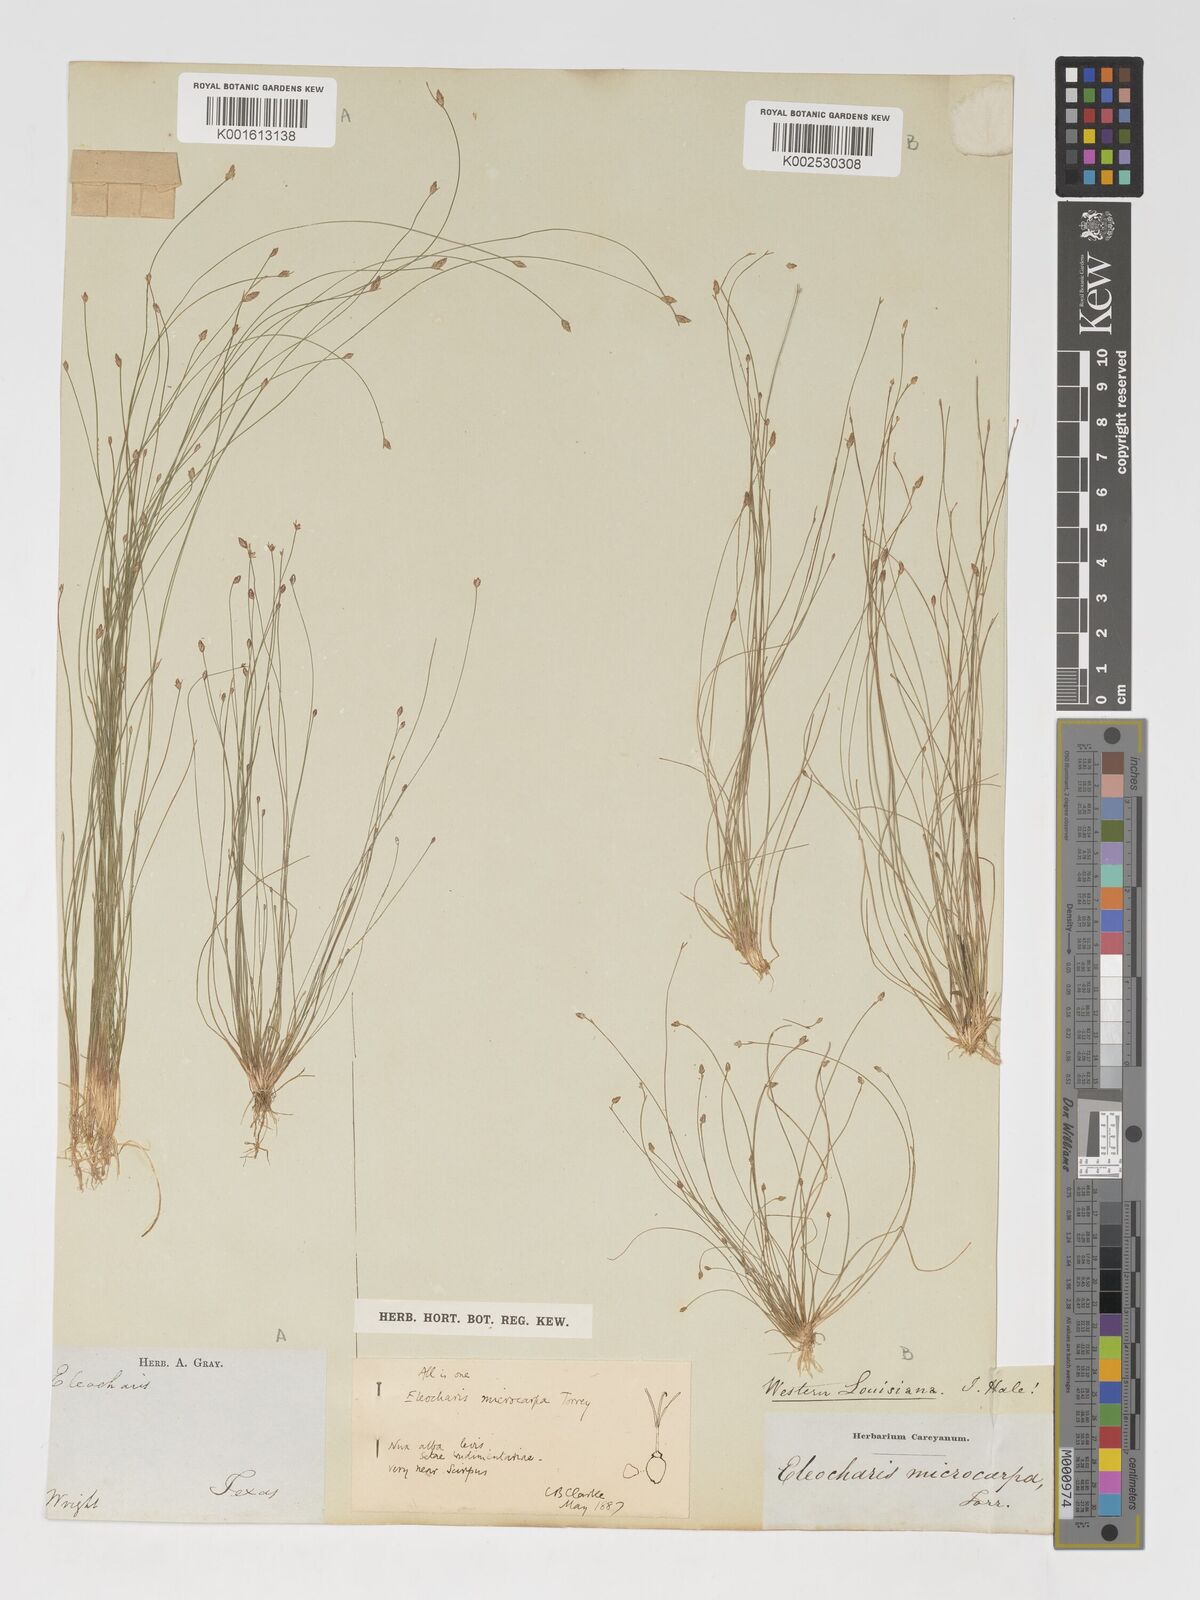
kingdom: Plantae
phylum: Tracheophyta
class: Liliopsida
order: Poales
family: Cyperaceae
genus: Eleocharis
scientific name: Eleocharis microcarpa
